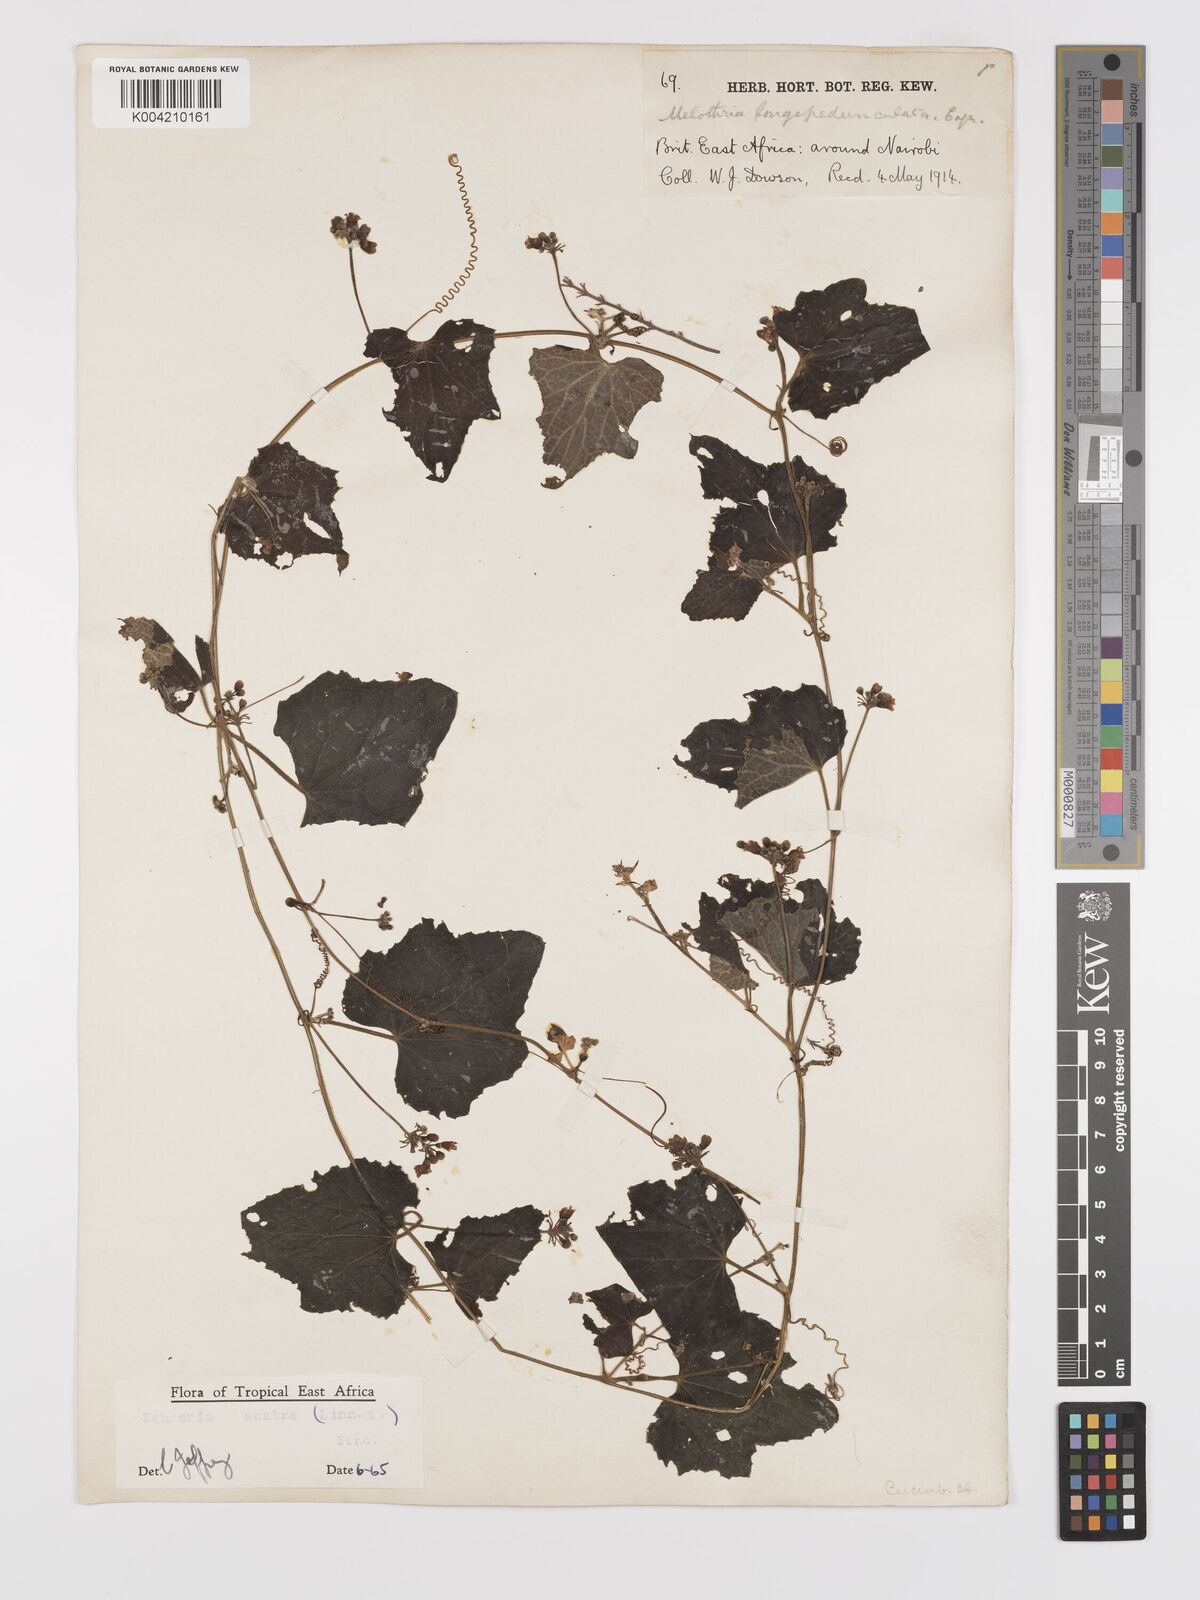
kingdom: Plantae
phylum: Tracheophyta
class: Magnoliopsida
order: Cucurbitales
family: Cucurbitaceae
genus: Zehneria
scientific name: Zehneria scabra
